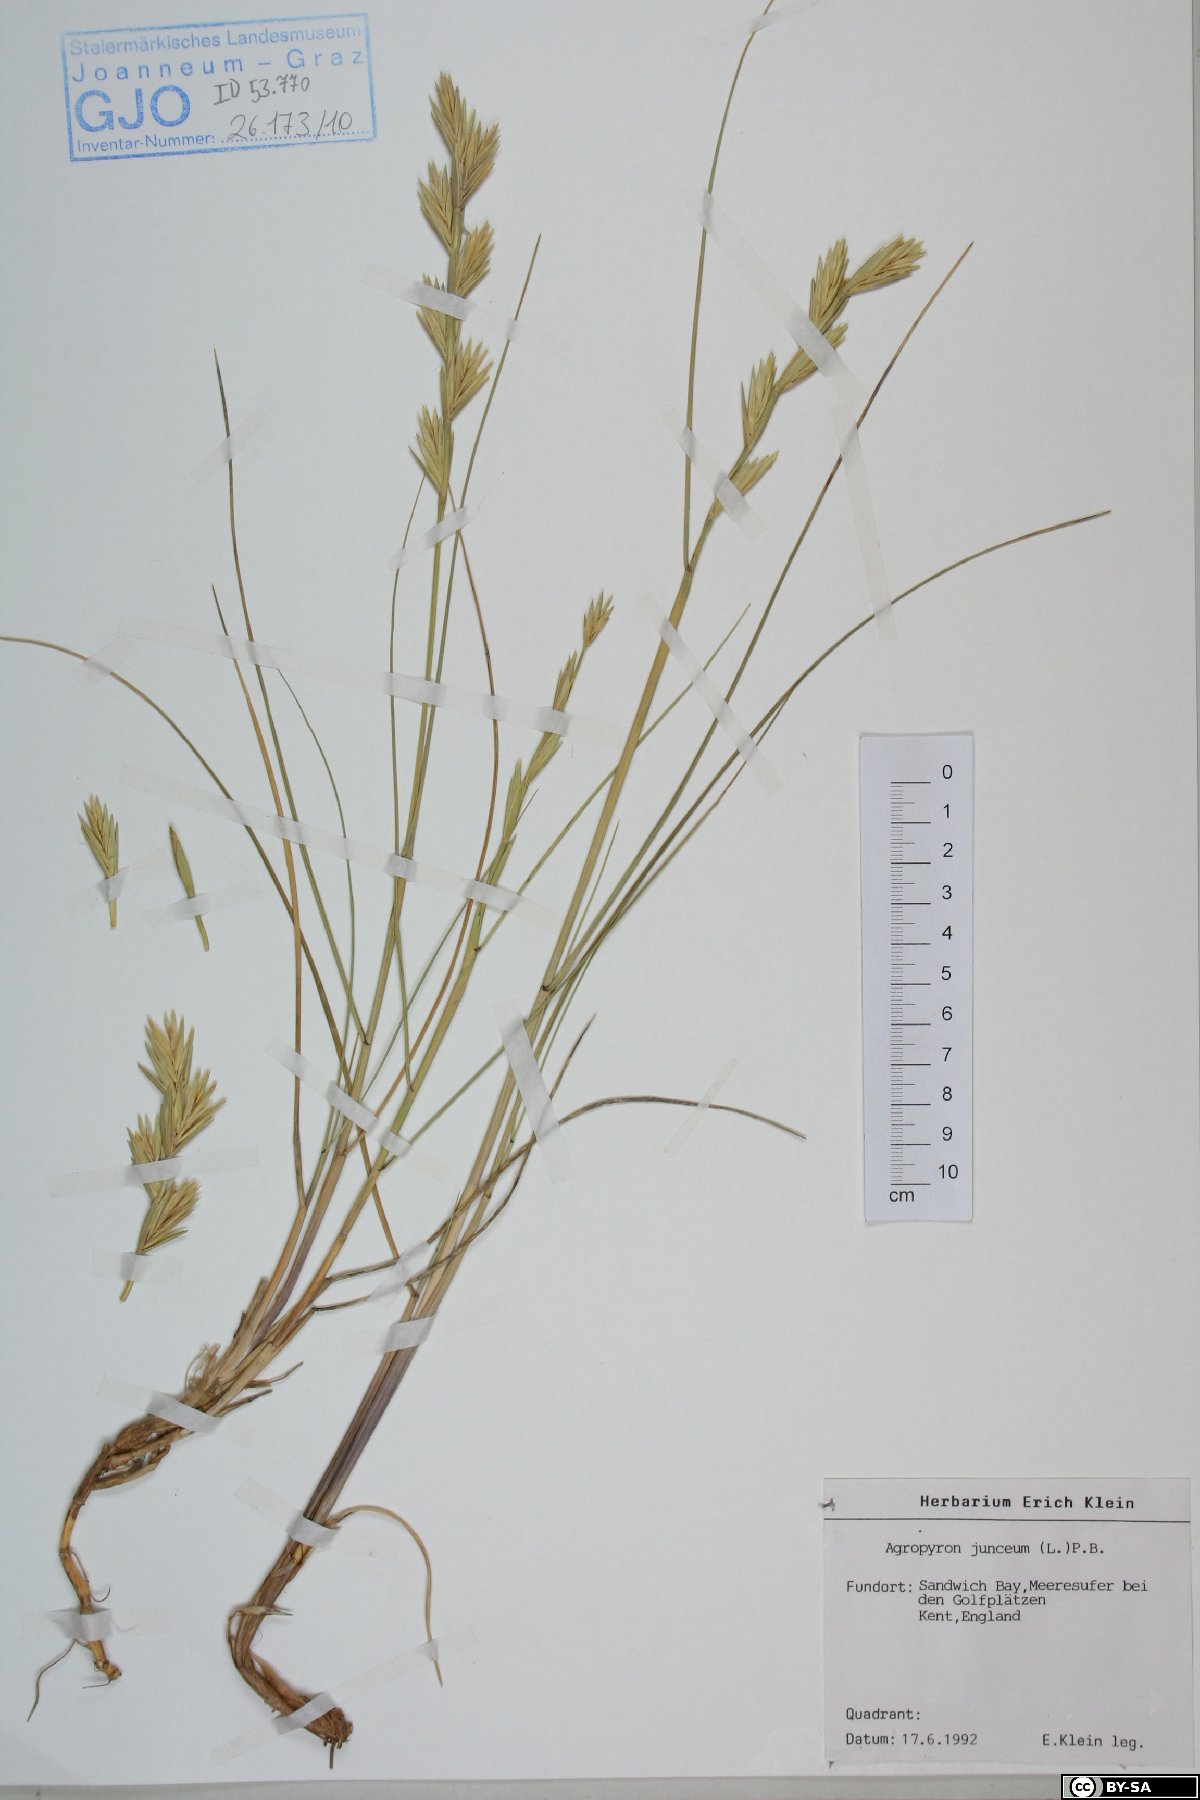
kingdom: Plantae
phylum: Tracheophyta
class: Liliopsida
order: Poales
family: Poaceae
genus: Thinopyrum
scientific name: Thinopyrum junceum
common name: Russian wheatgrass
